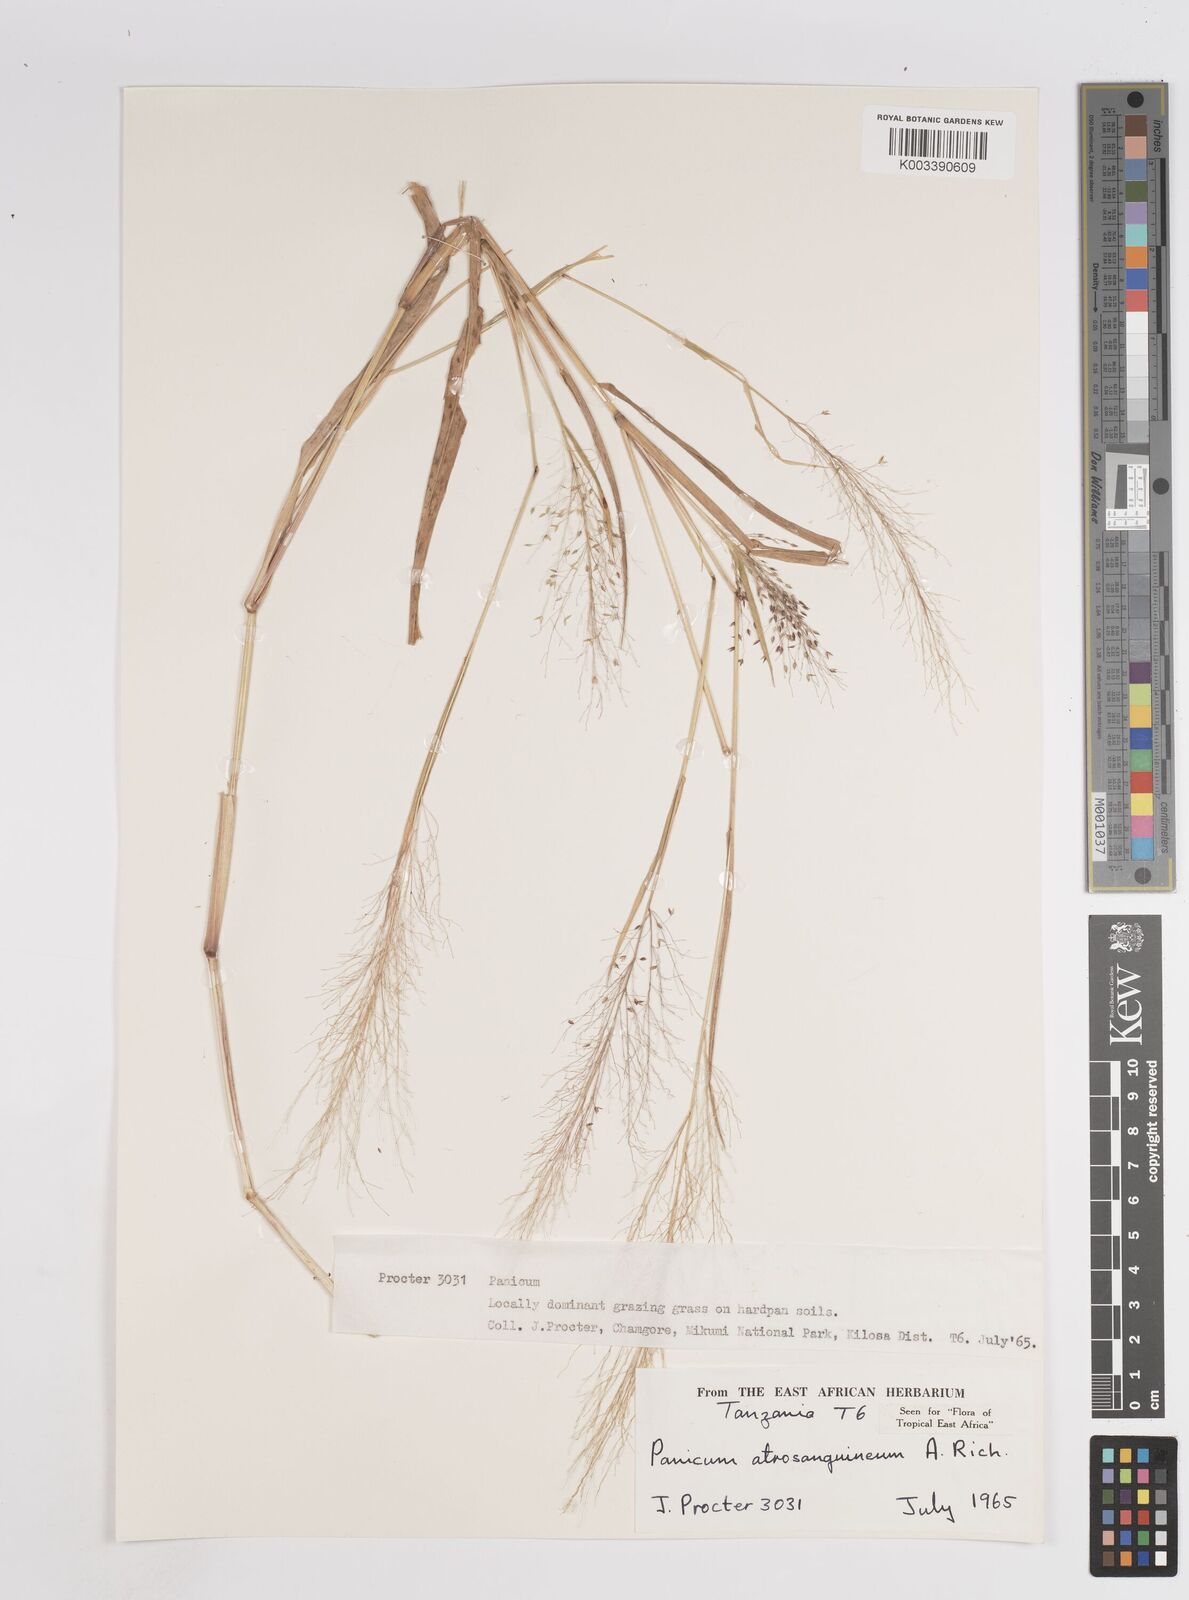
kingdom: Plantae
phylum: Tracheophyta
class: Liliopsida
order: Poales
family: Poaceae
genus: Panicum
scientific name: Panicum atrosanguineum
